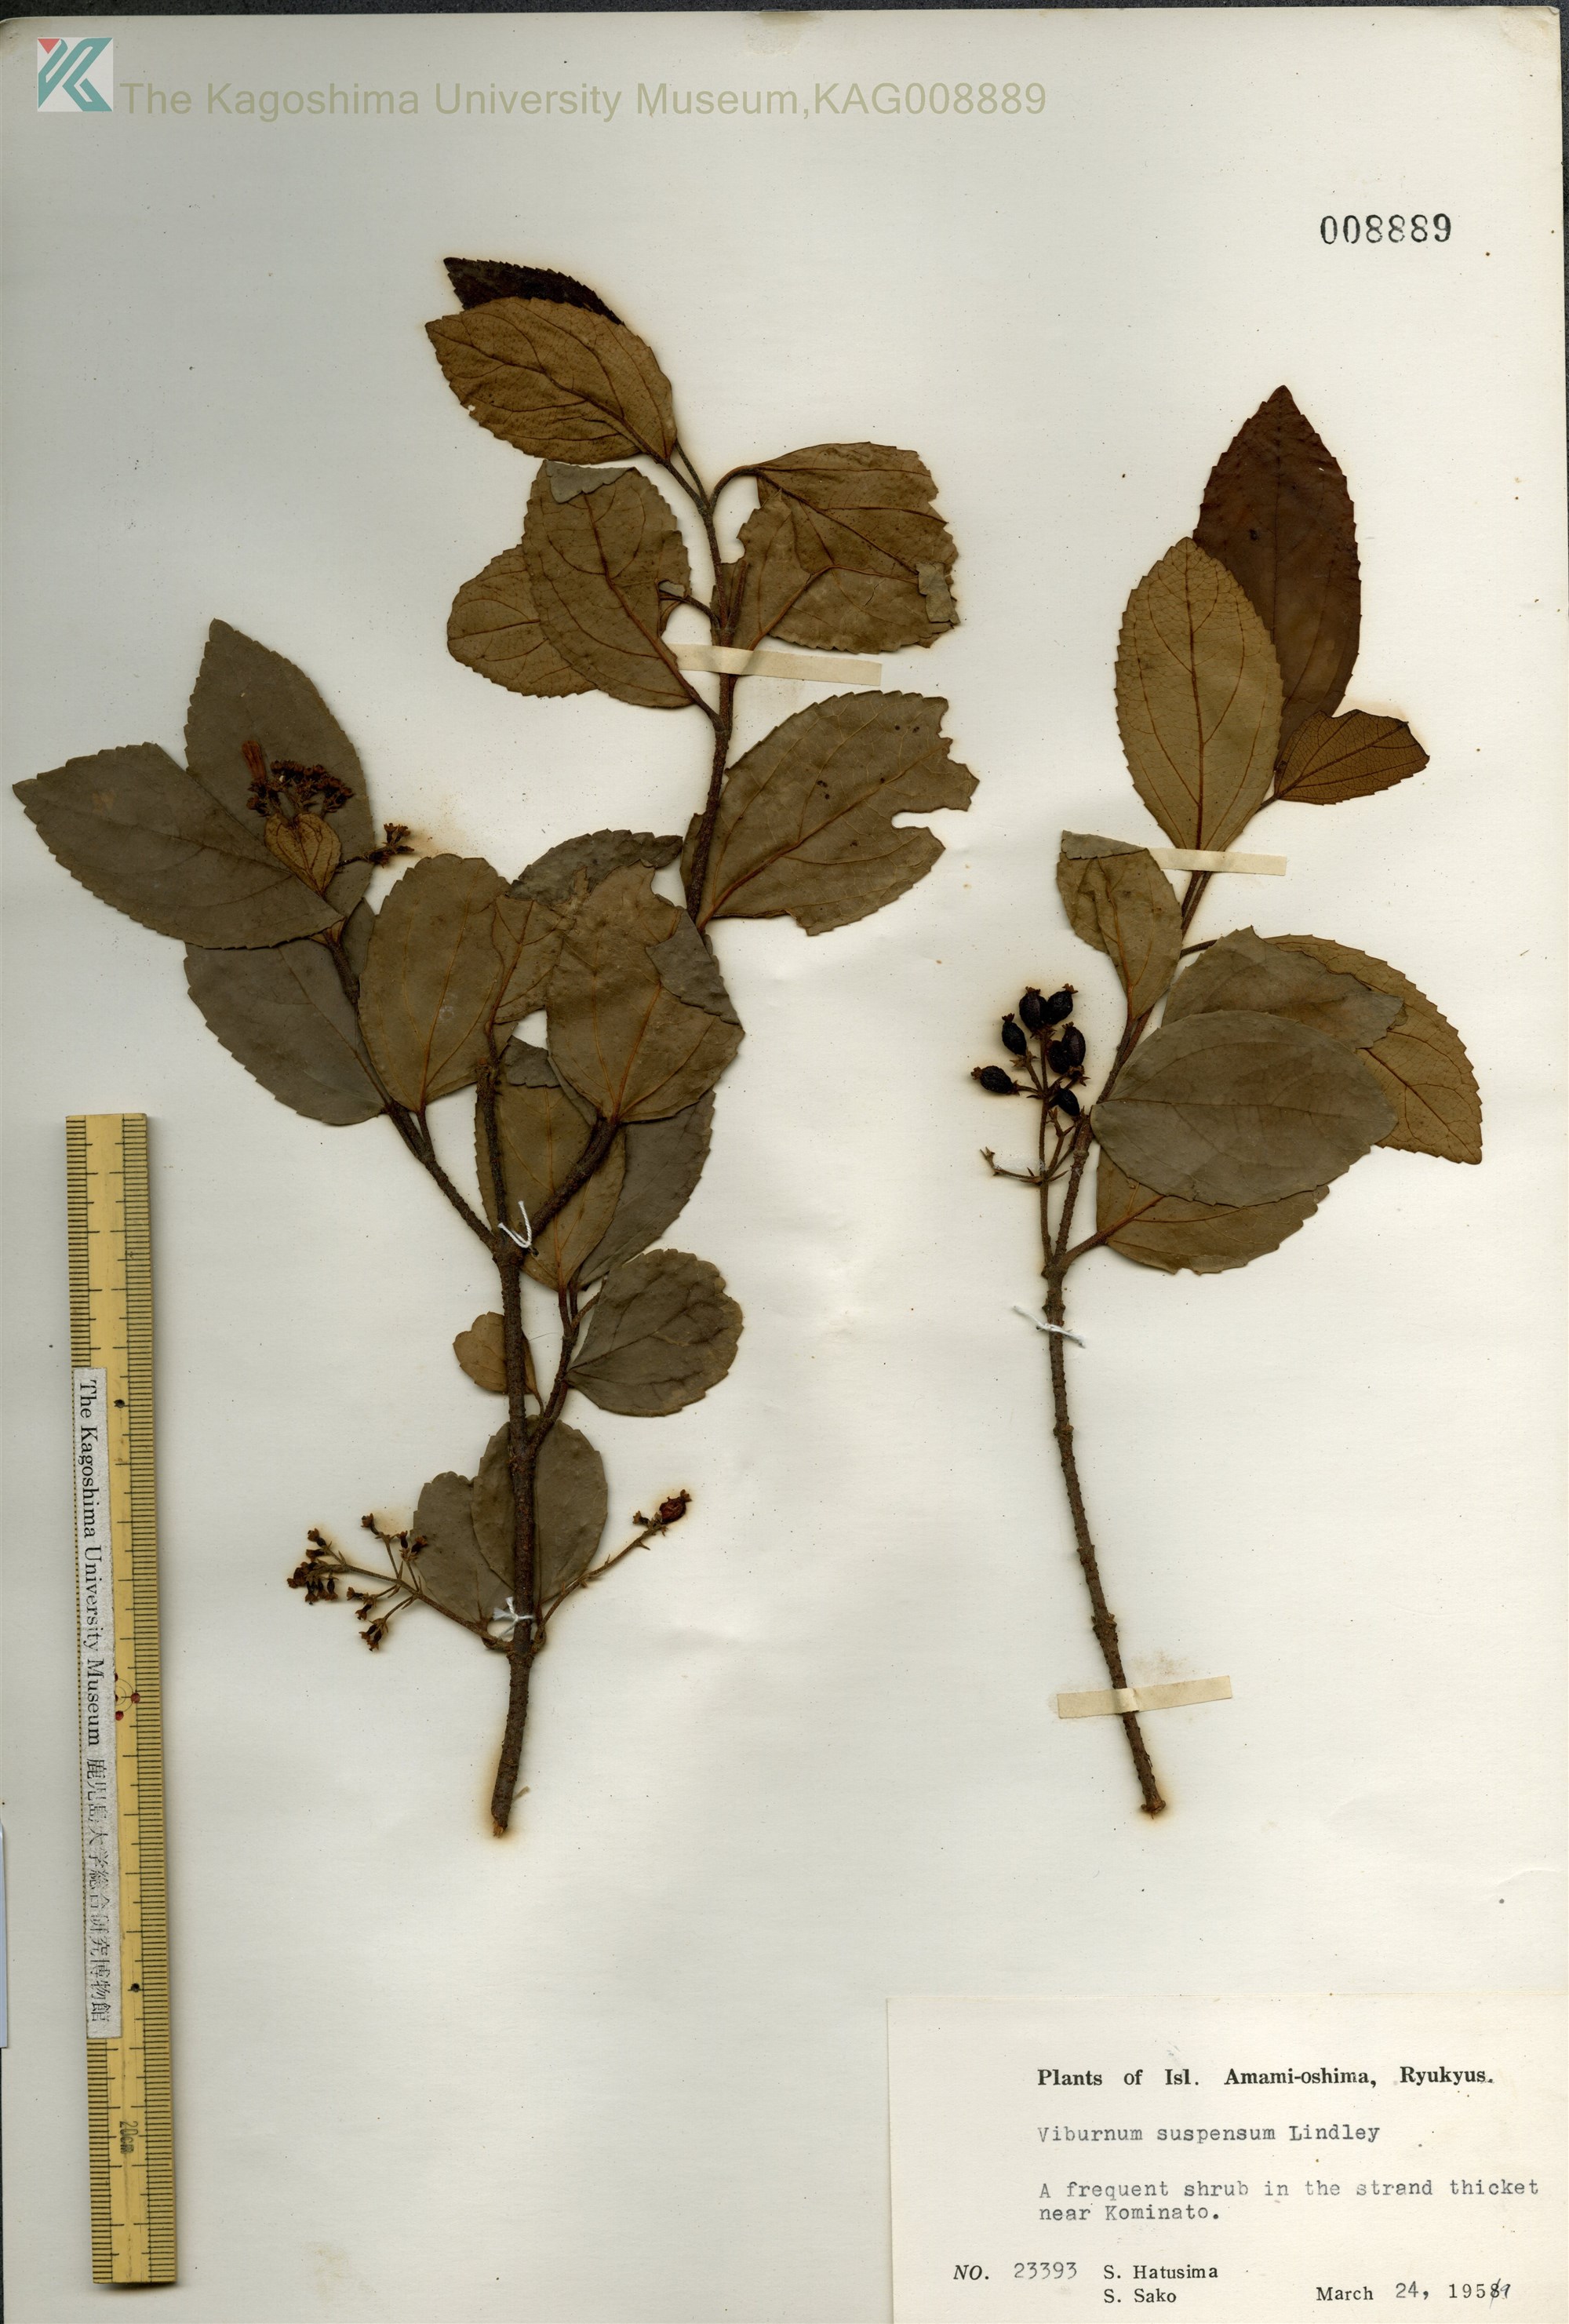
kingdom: Plantae
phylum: Tracheophyta
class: Magnoliopsida
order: Dipsacales
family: Viburnaceae
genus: Viburnum
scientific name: Viburnum suspensum
